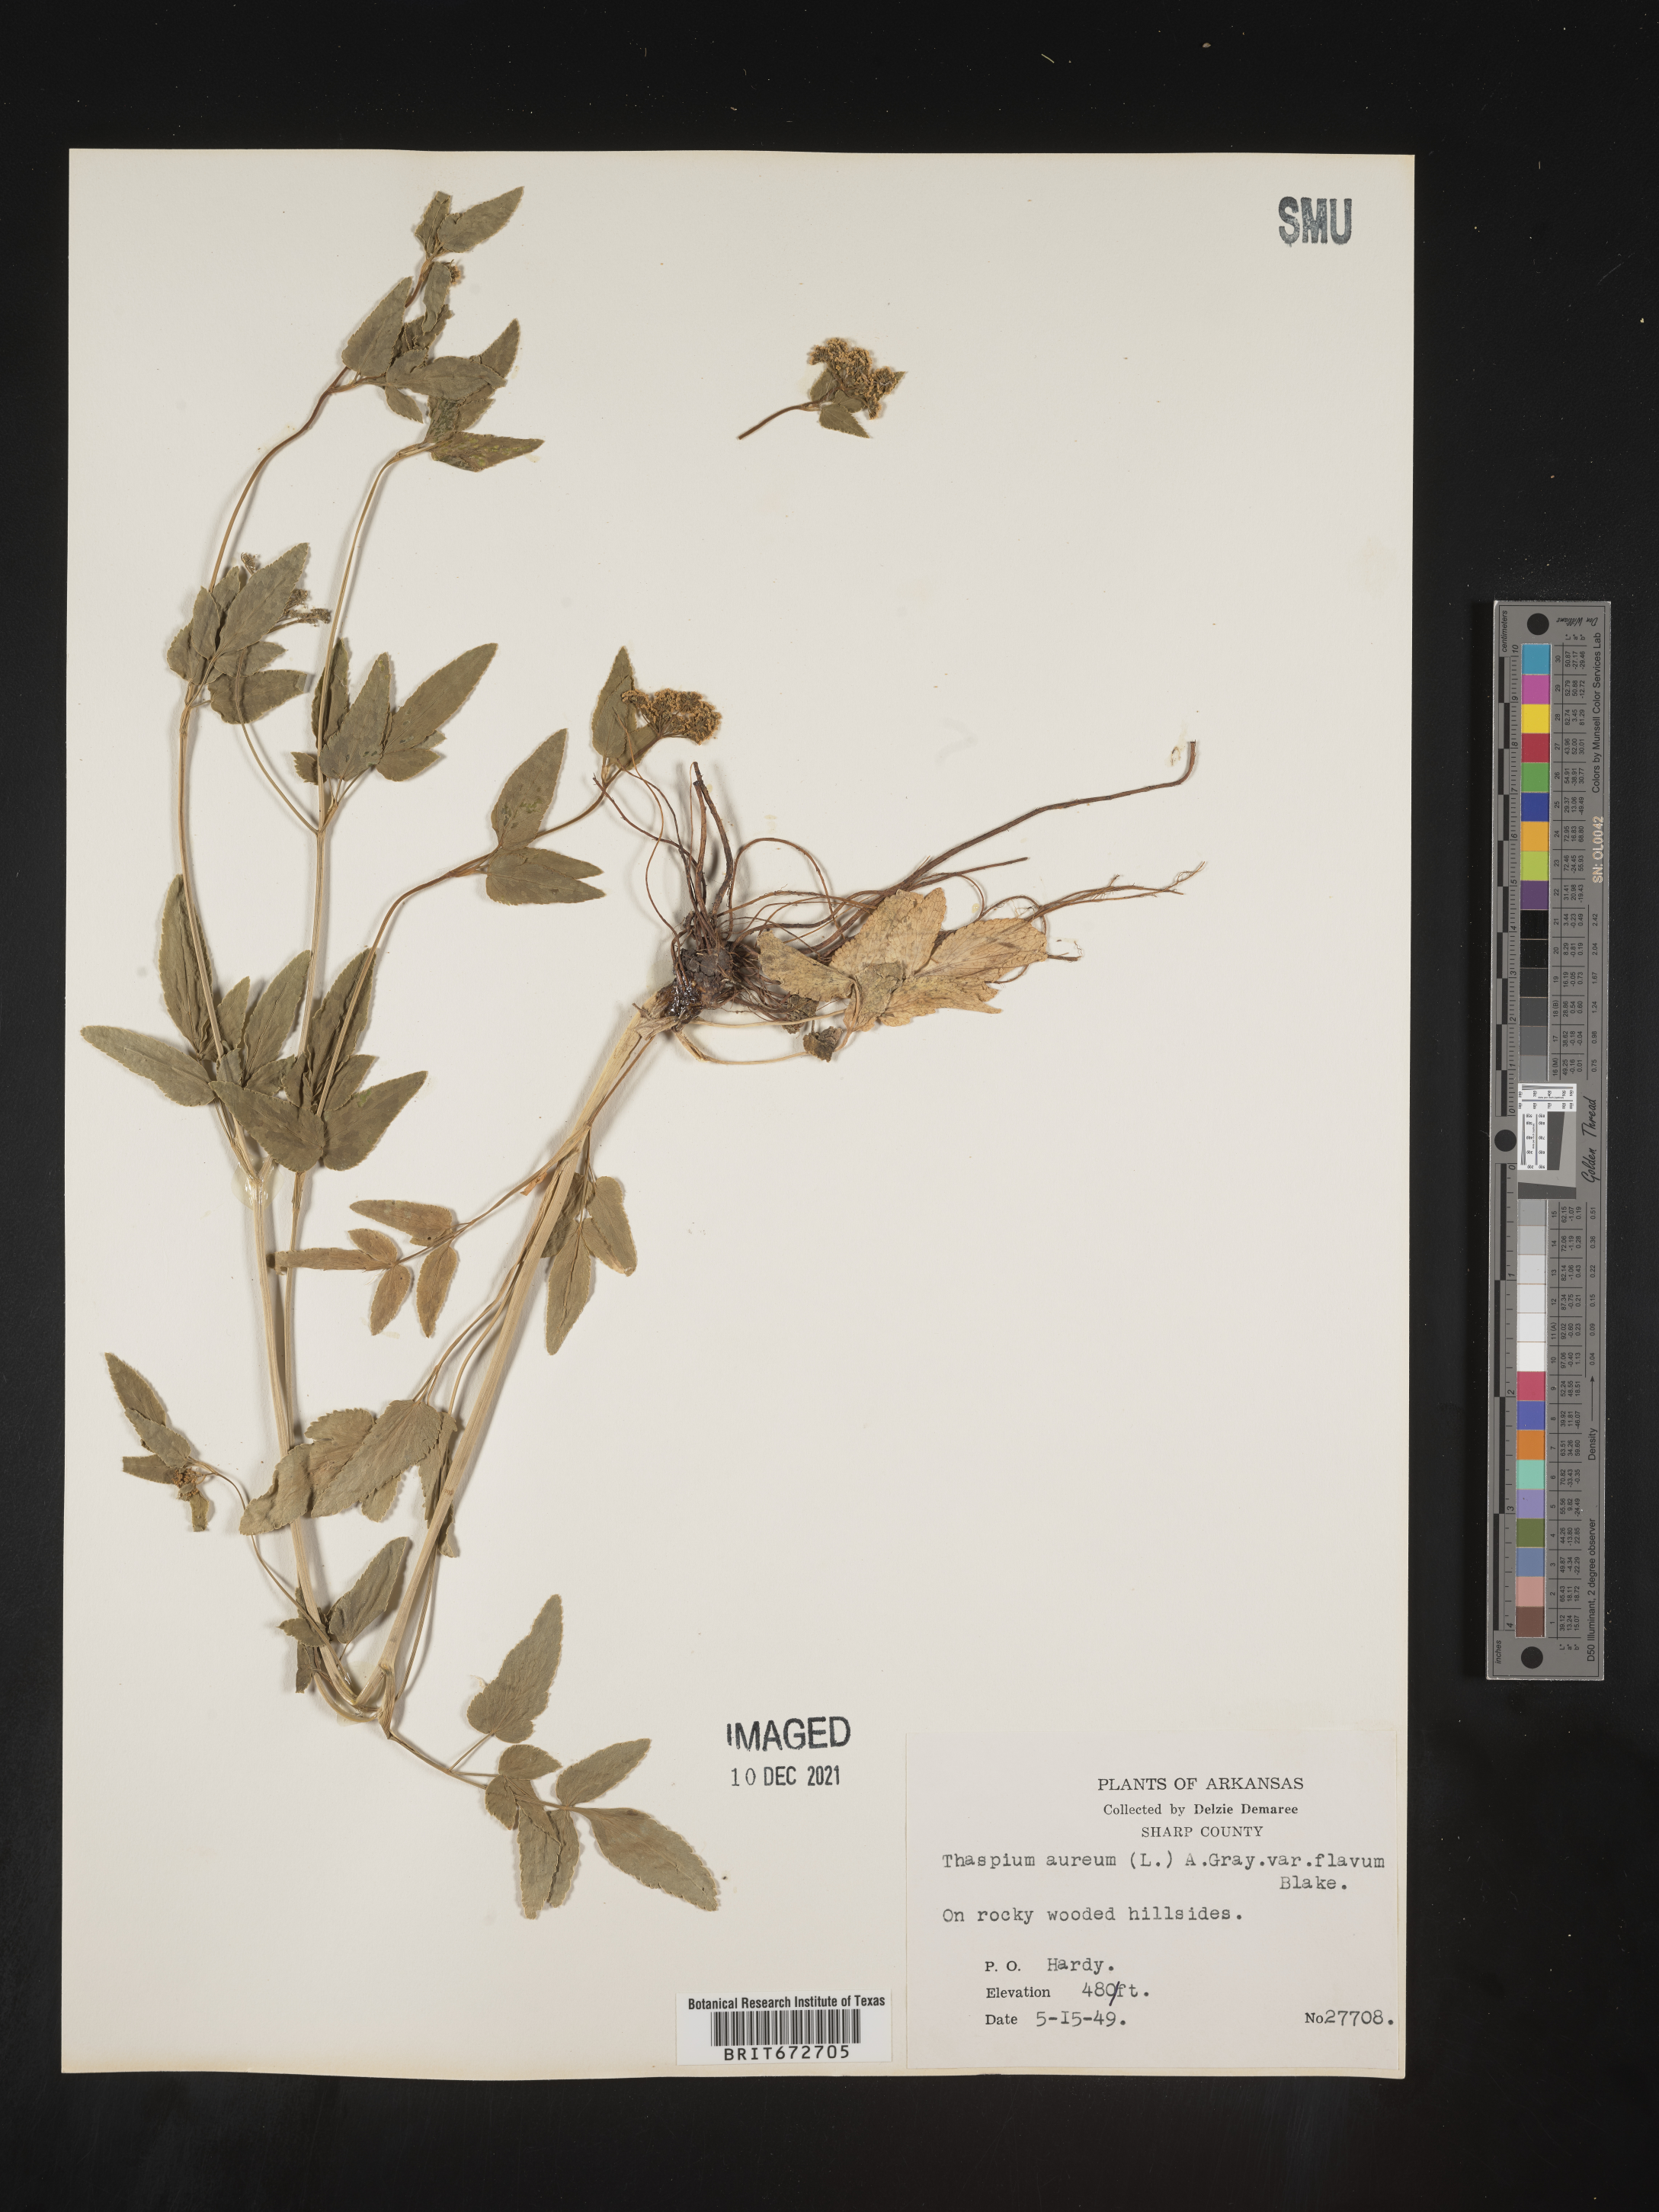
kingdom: Plantae
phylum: Tracheophyta
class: Magnoliopsida
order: Apiales
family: Apiaceae
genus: Thaspium
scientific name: Thaspium
